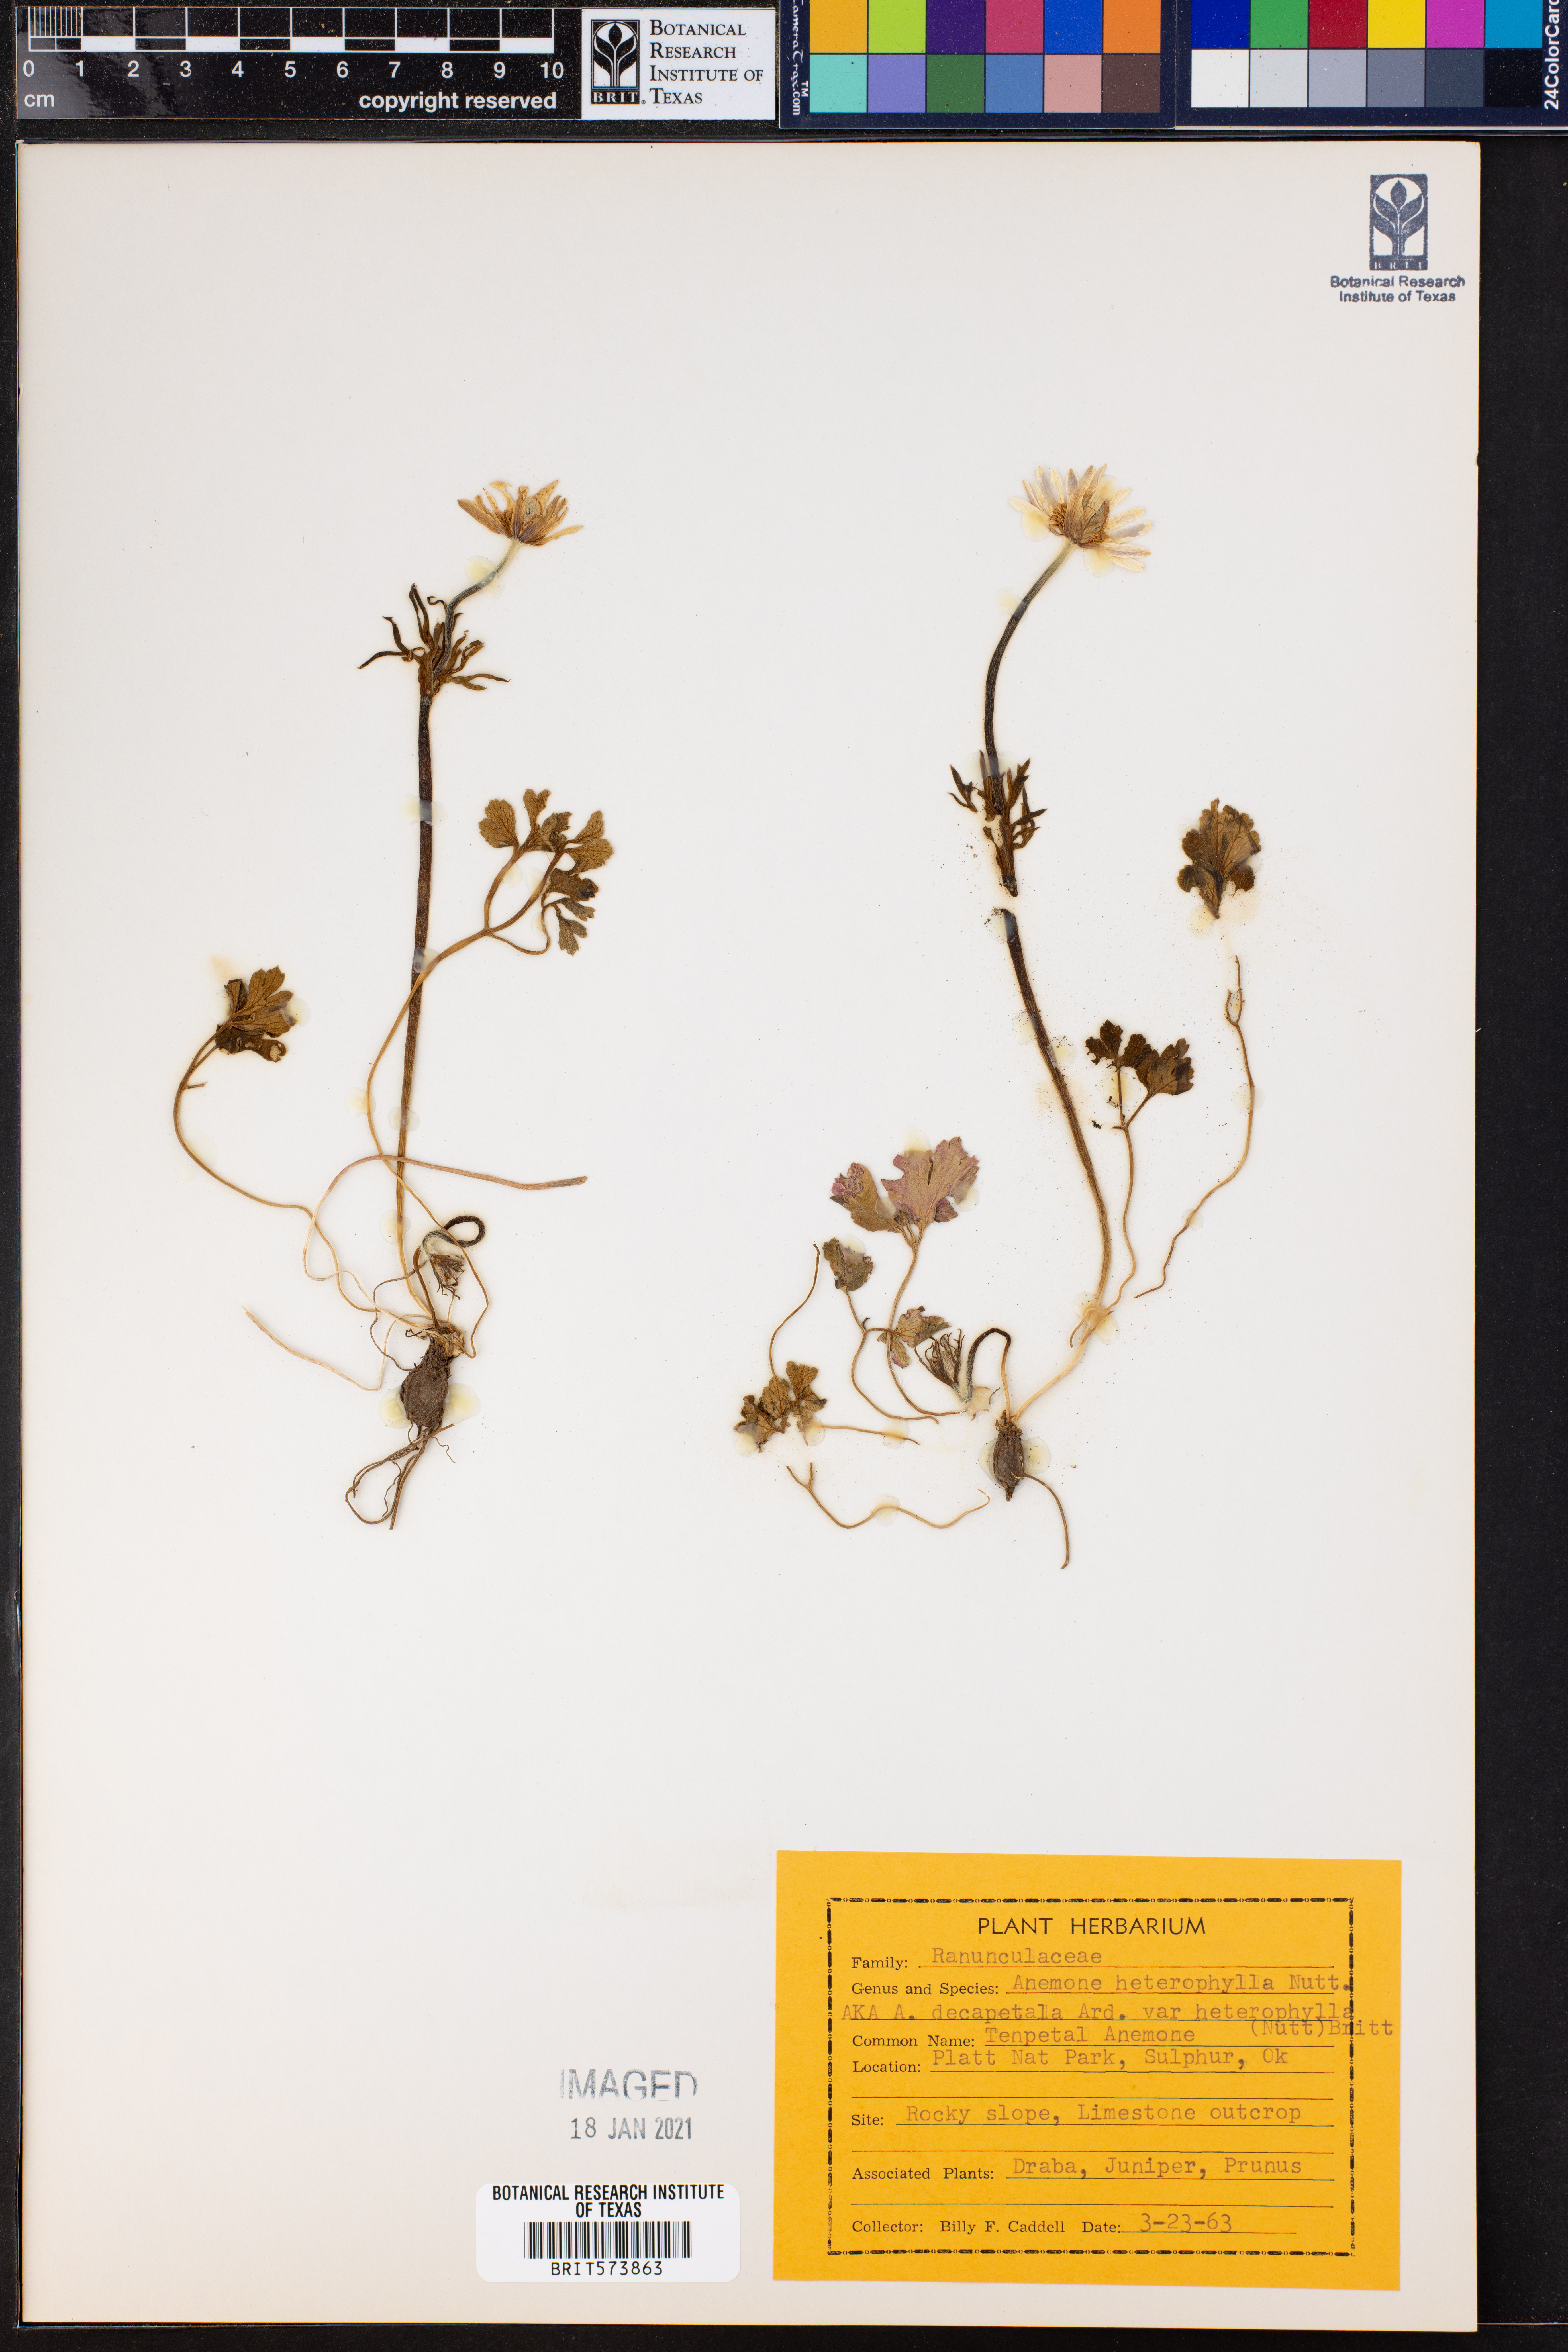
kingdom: Plantae
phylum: Tracheophyta
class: Magnoliopsida
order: Ranunculales
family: Ranunculaceae
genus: Anemone
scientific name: Anemone heterophylla
